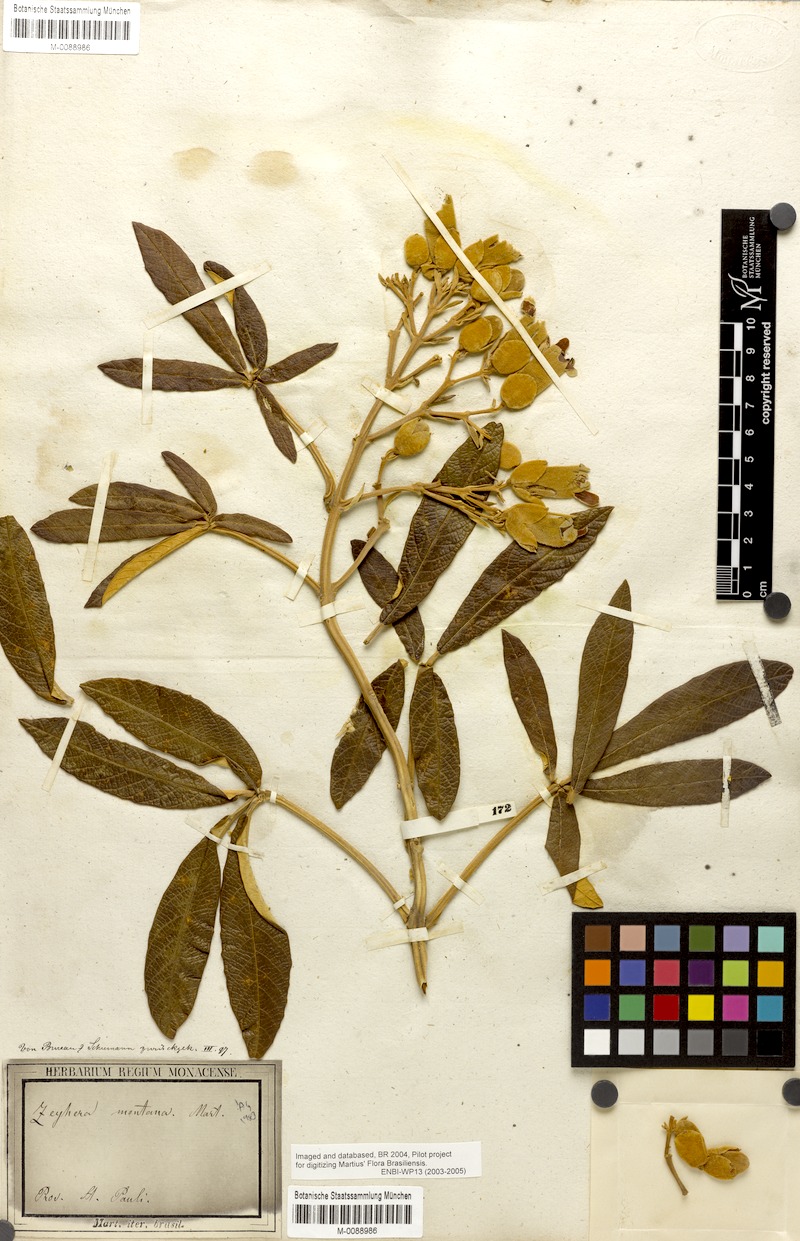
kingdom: Plantae
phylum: Tracheophyta
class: Magnoliopsida
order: Lamiales
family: Bignoniaceae
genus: Zeyheria
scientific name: Zeyheria montana
